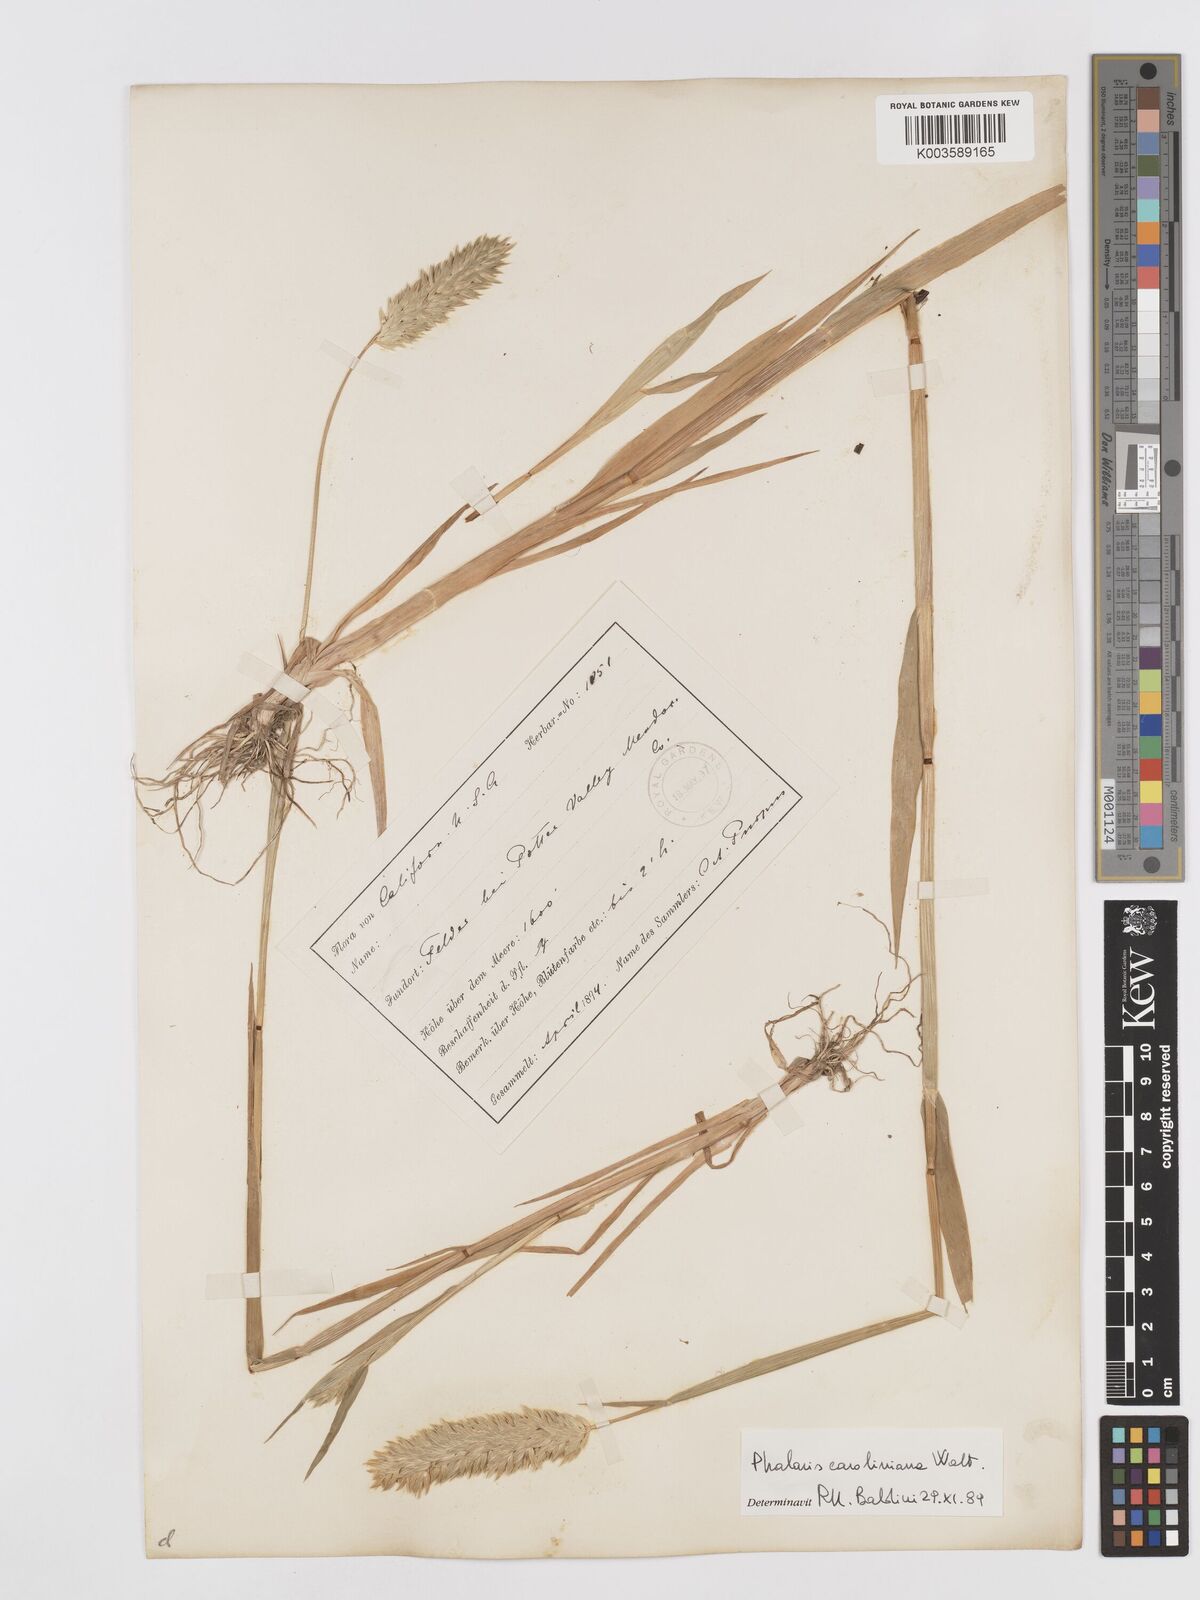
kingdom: Plantae
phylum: Tracheophyta
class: Liliopsida
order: Poales
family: Poaceae
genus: Phalaris
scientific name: Phalaris caroliniana
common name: May grass
